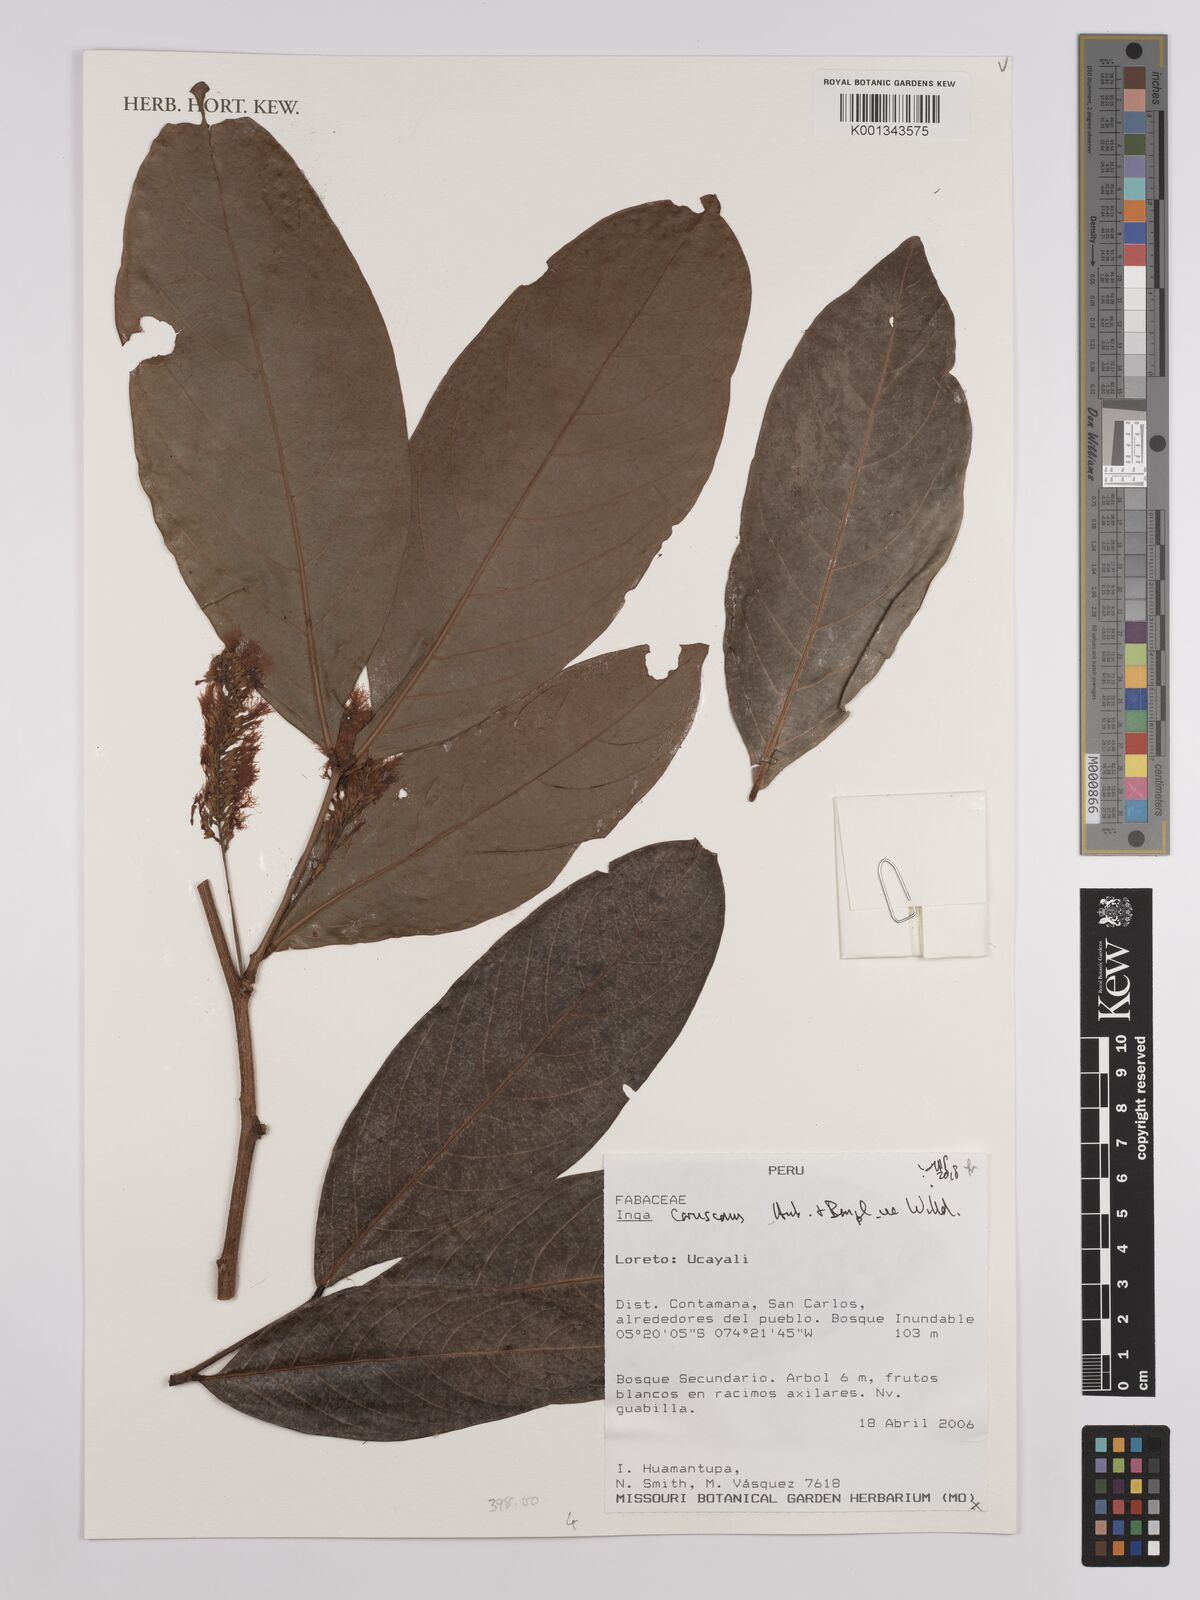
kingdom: Plantae
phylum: Tracheophyta
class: Magnoliopsida
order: Fabales
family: Fabaceae
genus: Inga
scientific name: Inga coruscans
